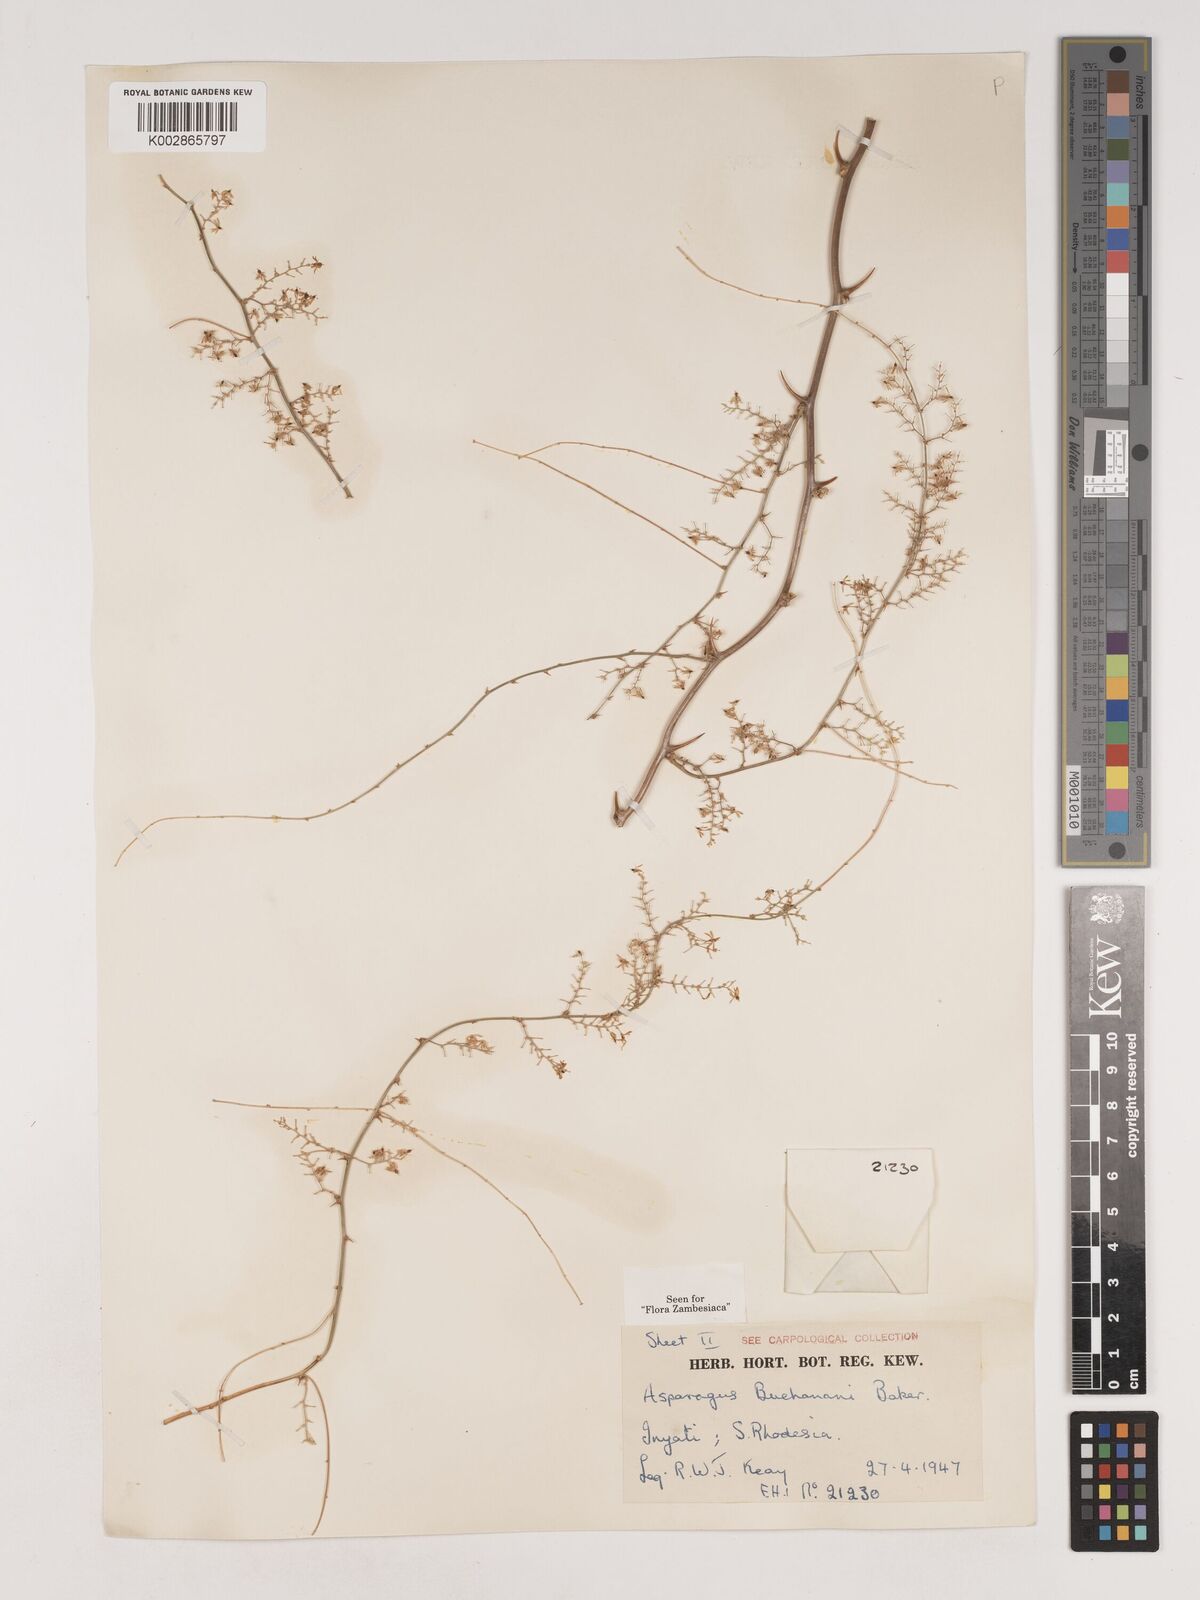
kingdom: Plantae
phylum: Tracheophyta
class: Liliopsida
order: Asparagales
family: Asparagaceae
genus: Asparagus
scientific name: Asparagus buchananii
